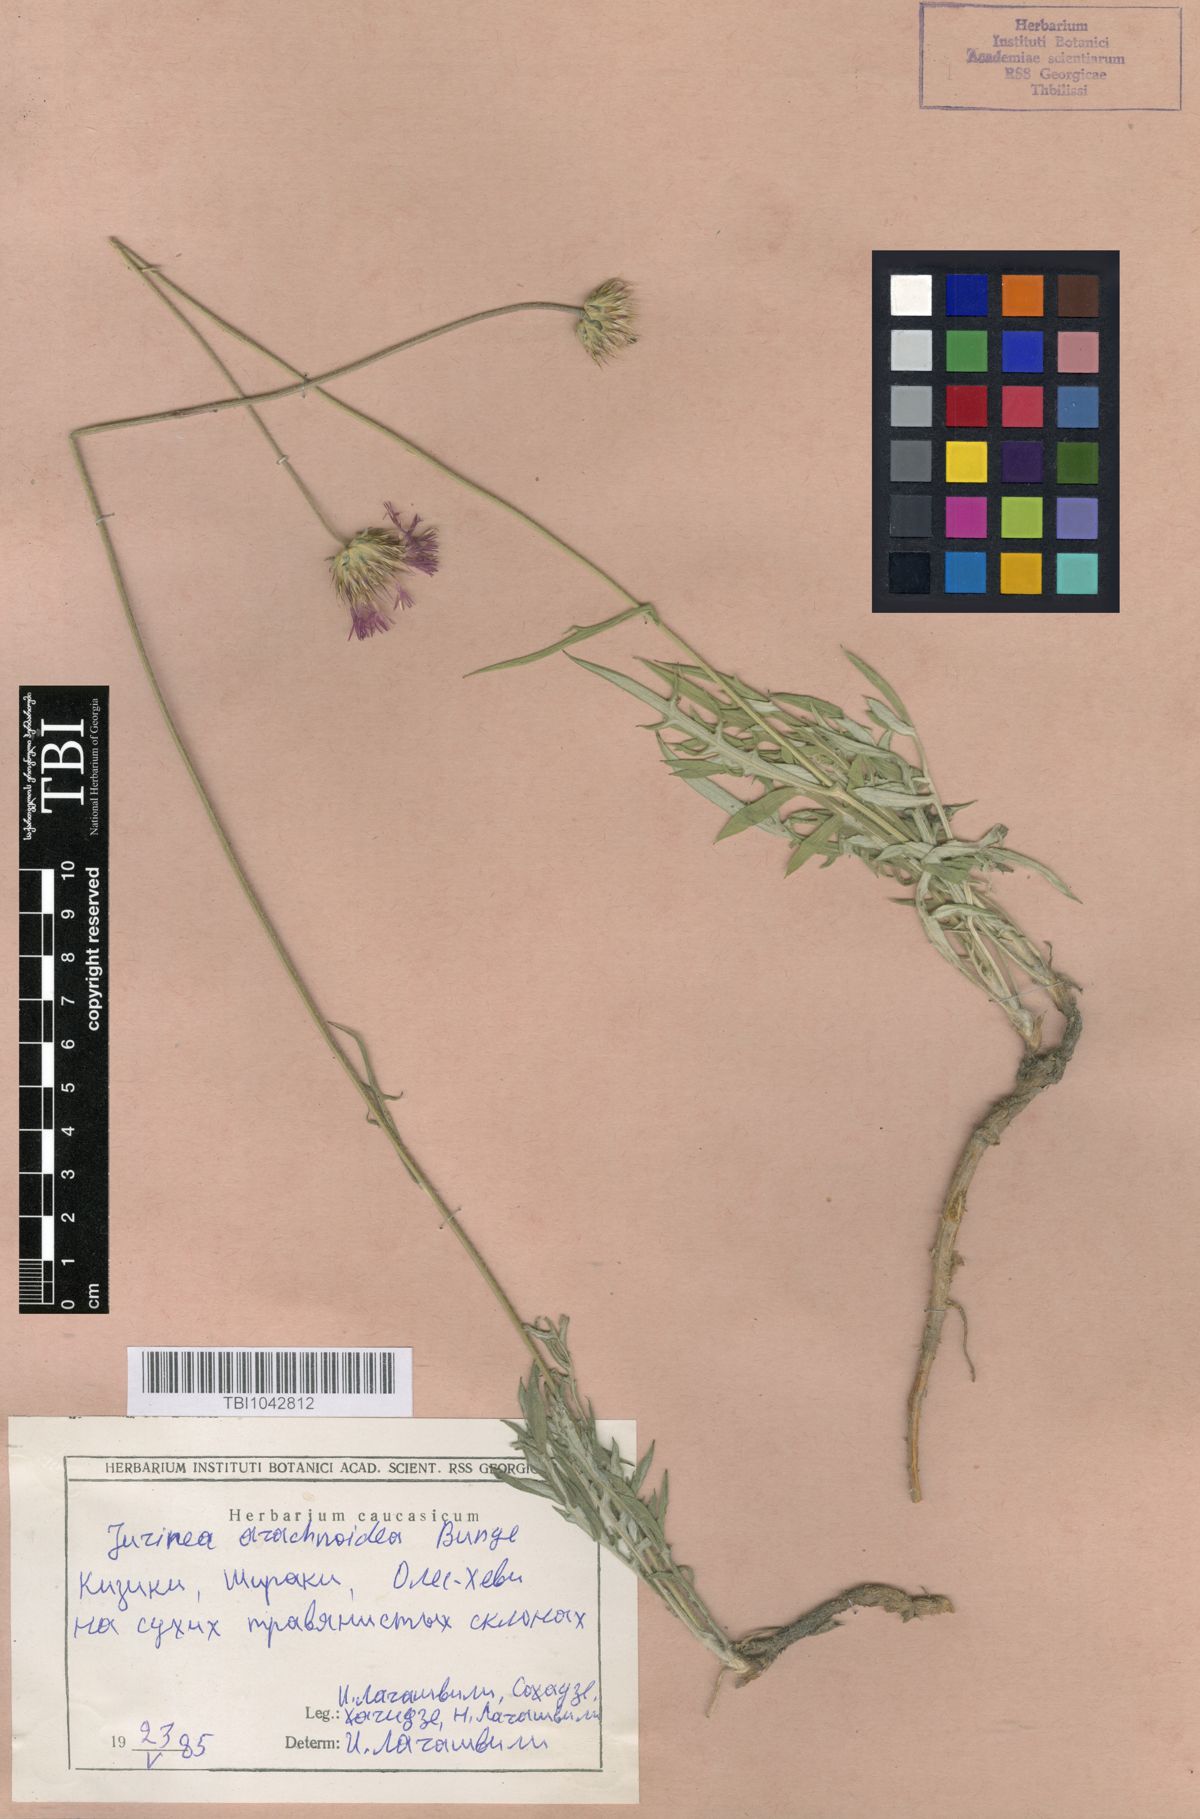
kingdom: Plantae
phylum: Tracheophyta
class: Magnoliopsida
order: Asterales
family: Asteraceae
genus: Jurinea
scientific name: Jurinea blanda
